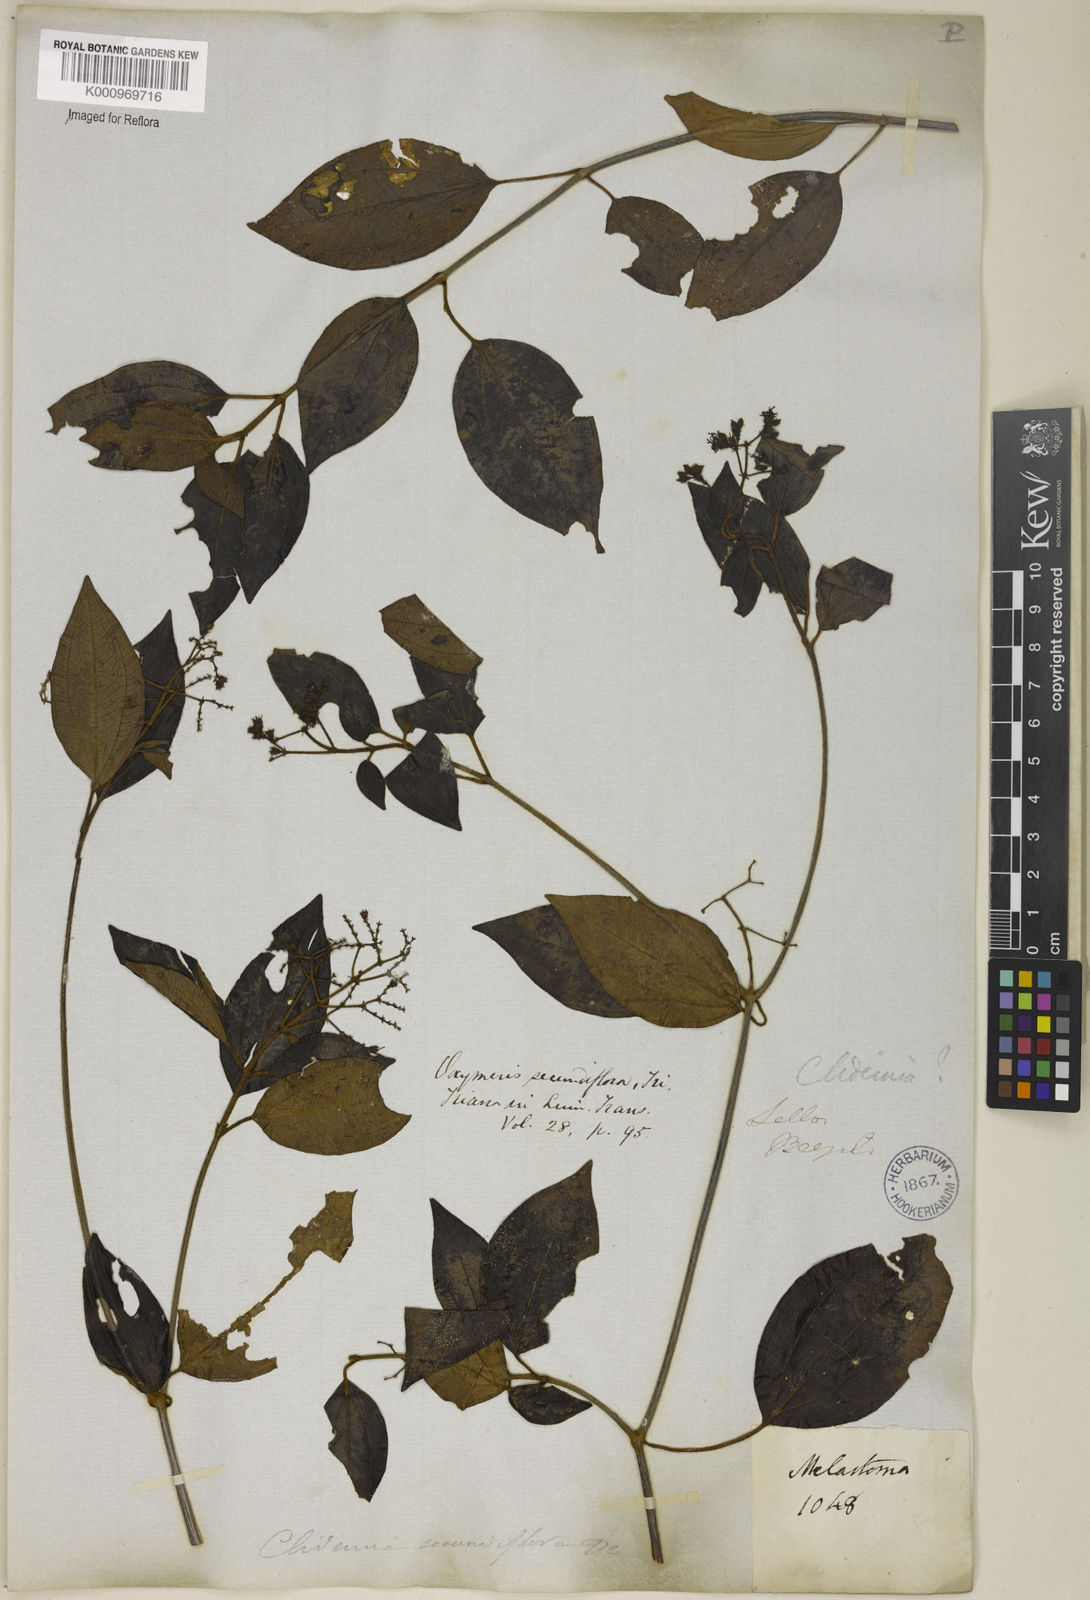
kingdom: Plantae
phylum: Tracheophyta
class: Magnoliopsida
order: Myrtales
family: Melastomataceae
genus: Miconia
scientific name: Miconia rhamnifolia
